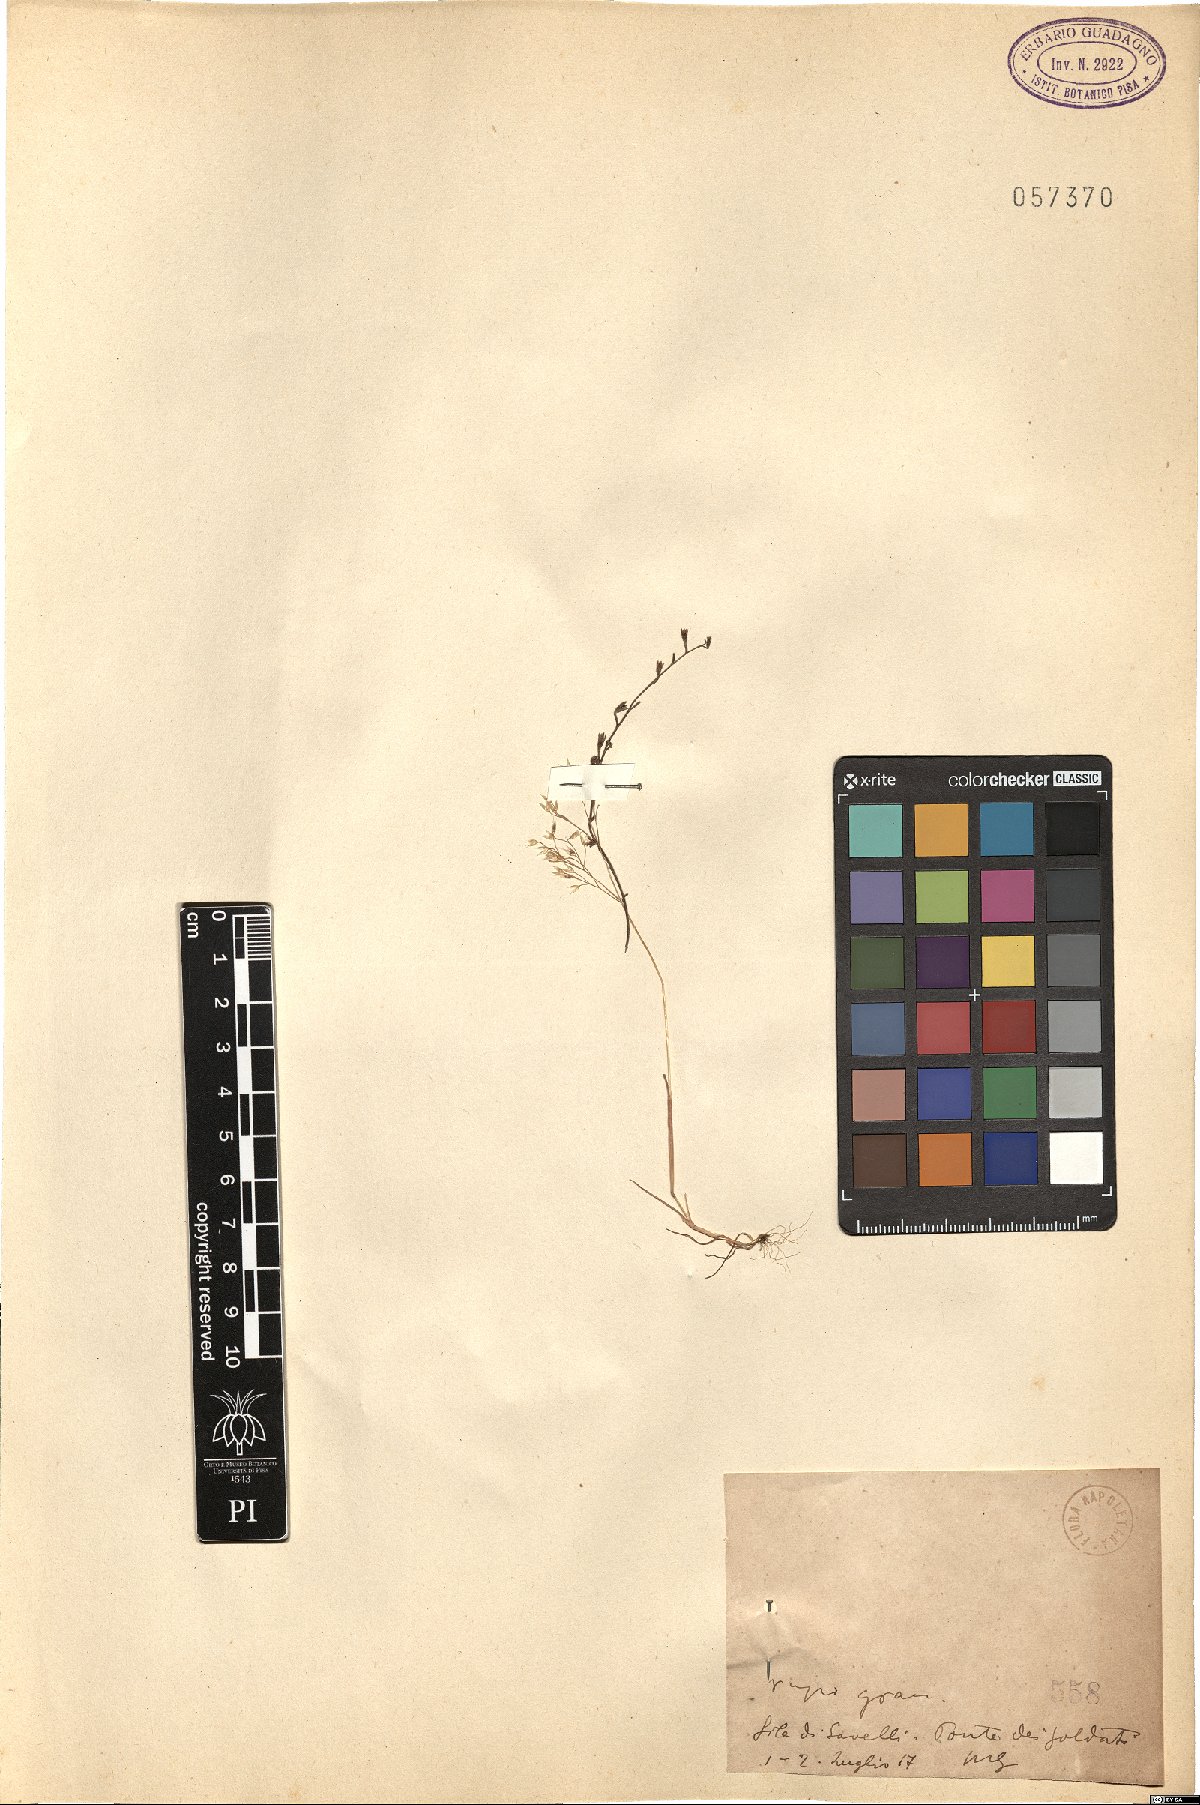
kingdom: Plantae
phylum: Tracheophyta
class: Magnoliopsida
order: Boraginales
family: Boraginaceae
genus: Myosotis
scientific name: Myosotis
